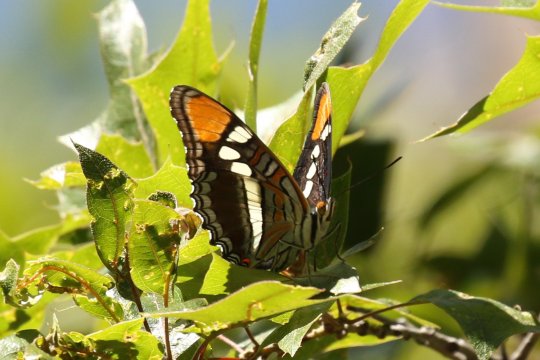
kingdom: Animalia
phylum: Arthropoda
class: Insecta
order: Lepidoptera
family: Nymphalidae
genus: Limenitis
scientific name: Limenitis bredowii
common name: Arizona Sister
